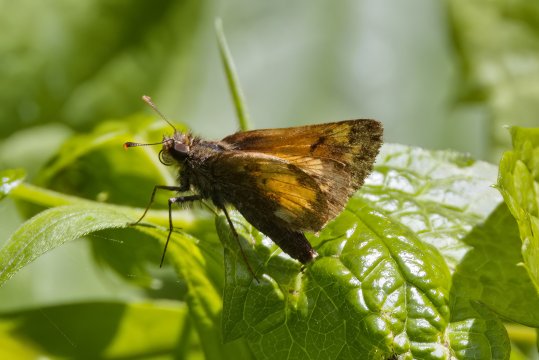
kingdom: Animalia
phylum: Arthropoda
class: Insecta
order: Lepidoptera
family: Hesperiidae
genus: Lon
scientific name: Lon hobomok
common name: Hobomok Skipper
